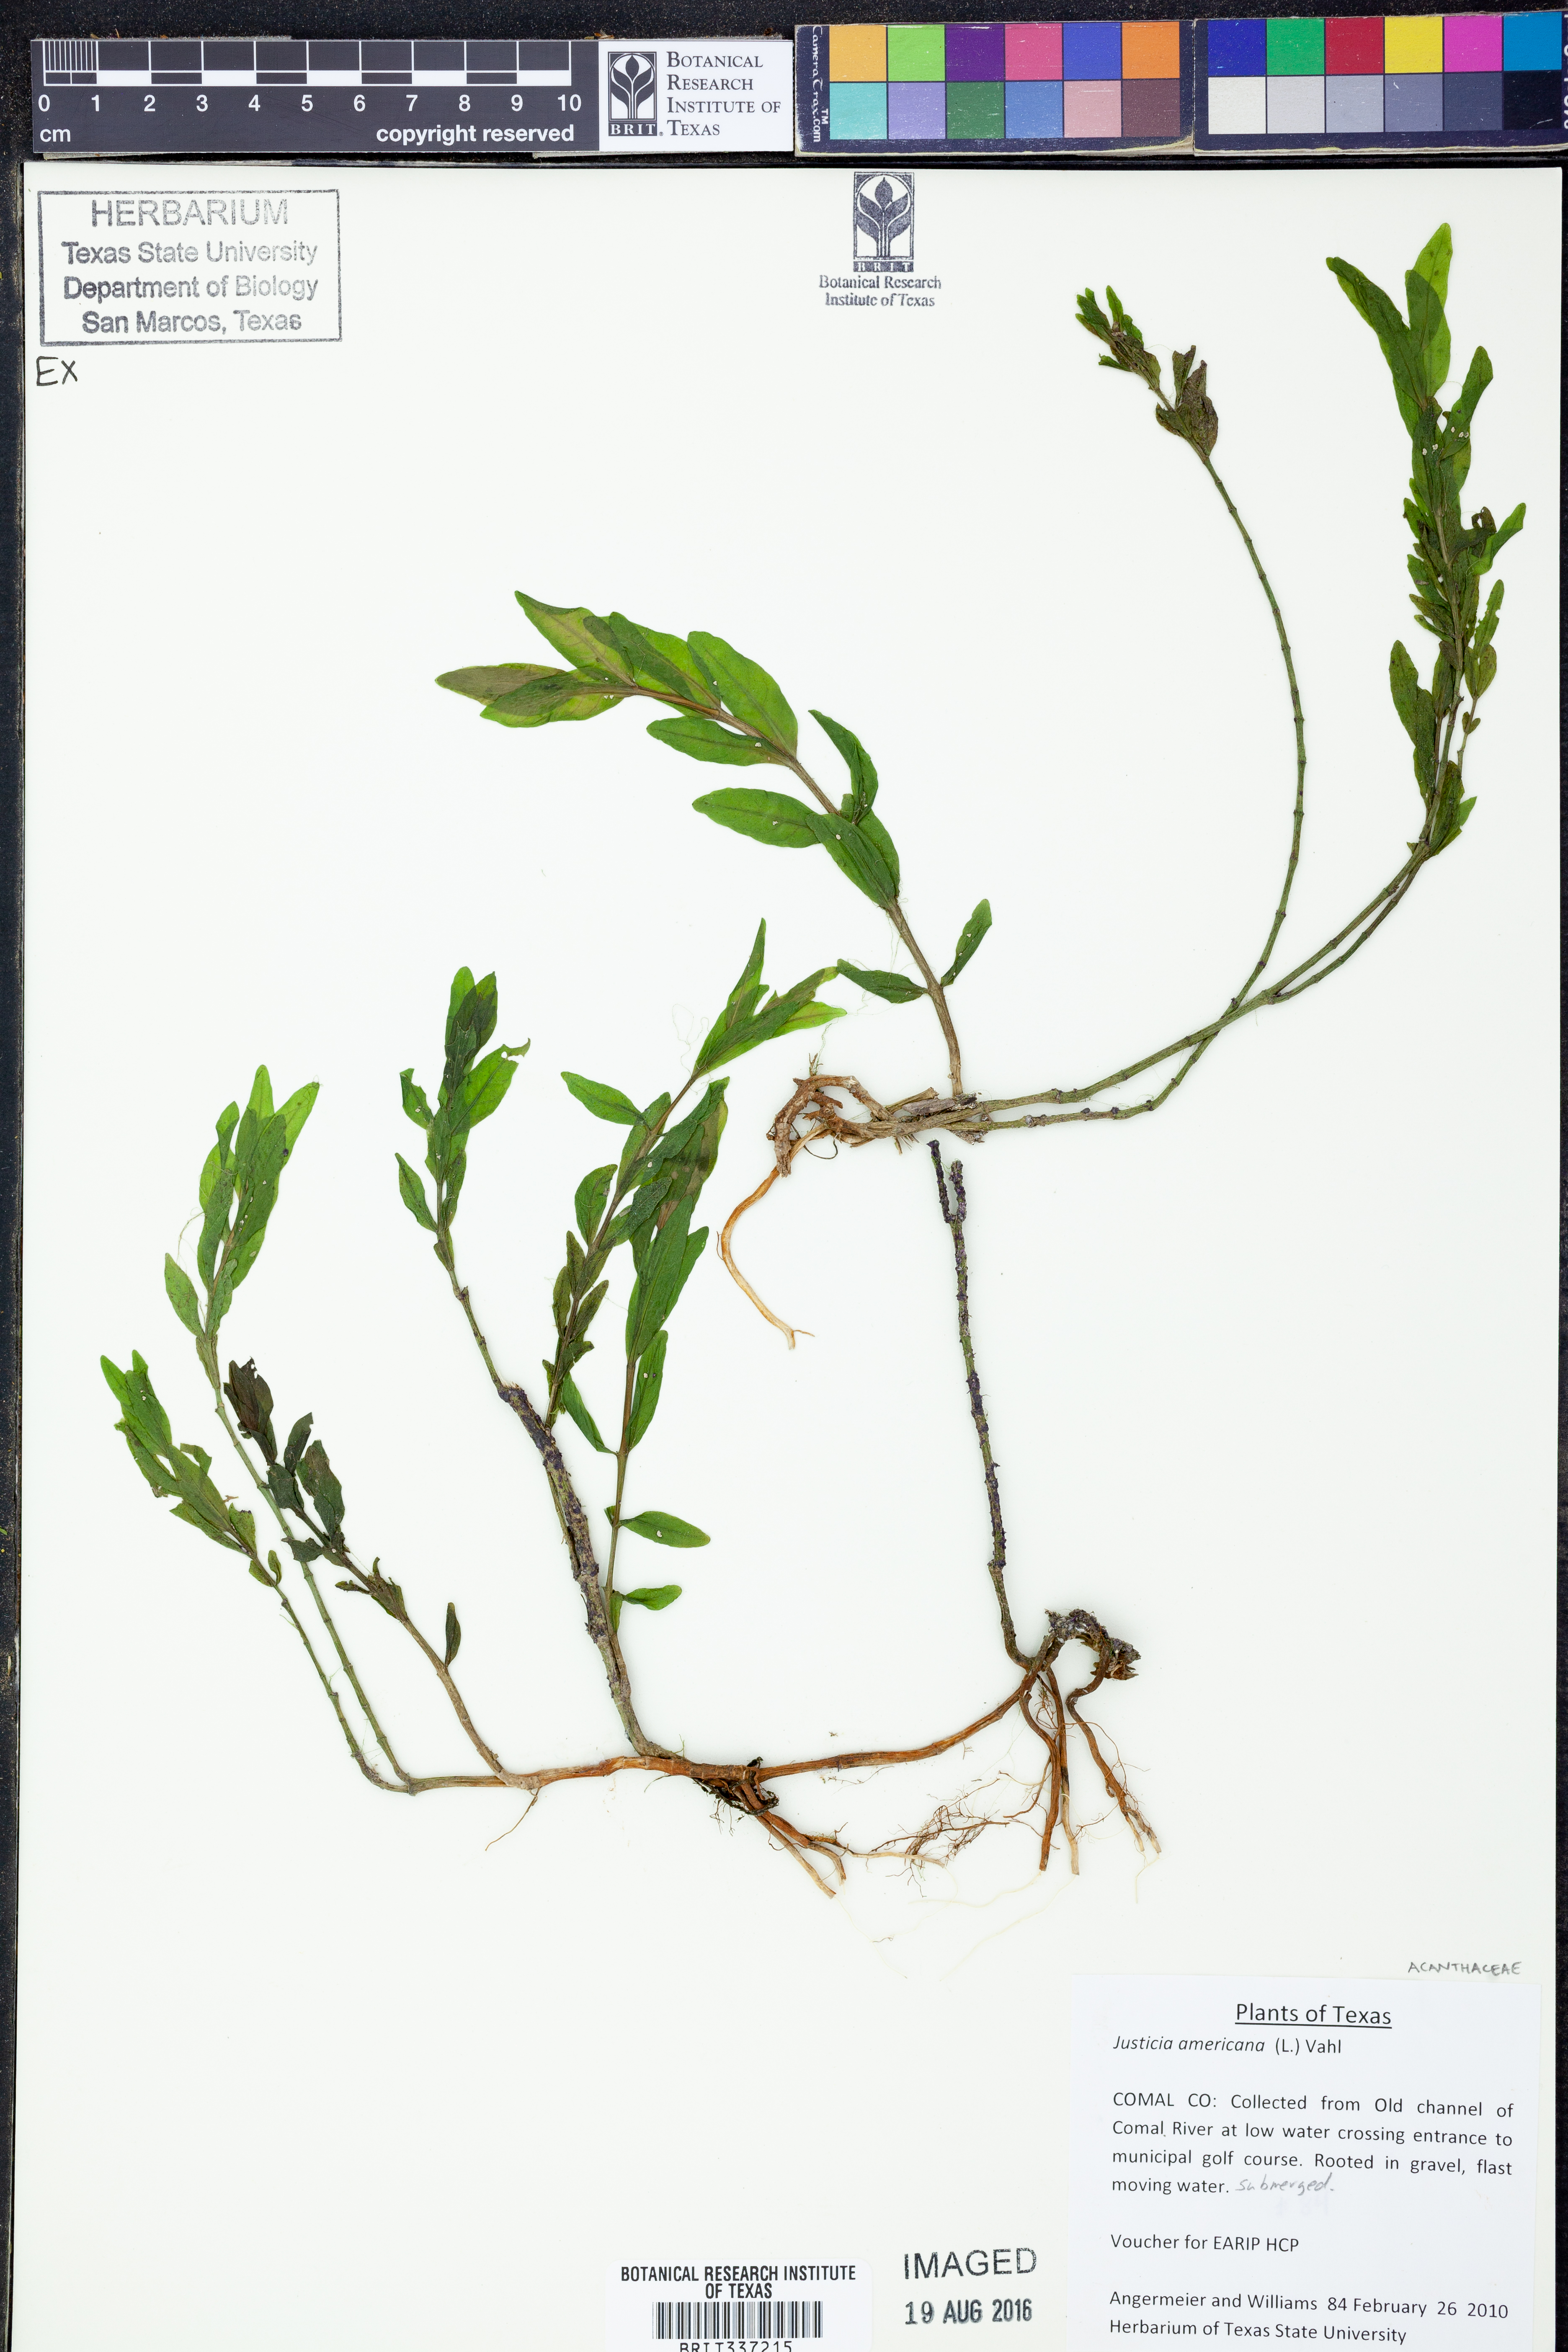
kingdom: Plantae
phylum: Tracheophyta
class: Magnoliopsida
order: Lamiales
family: Acanthaceae
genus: Dianthera
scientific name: Dianthera americana
